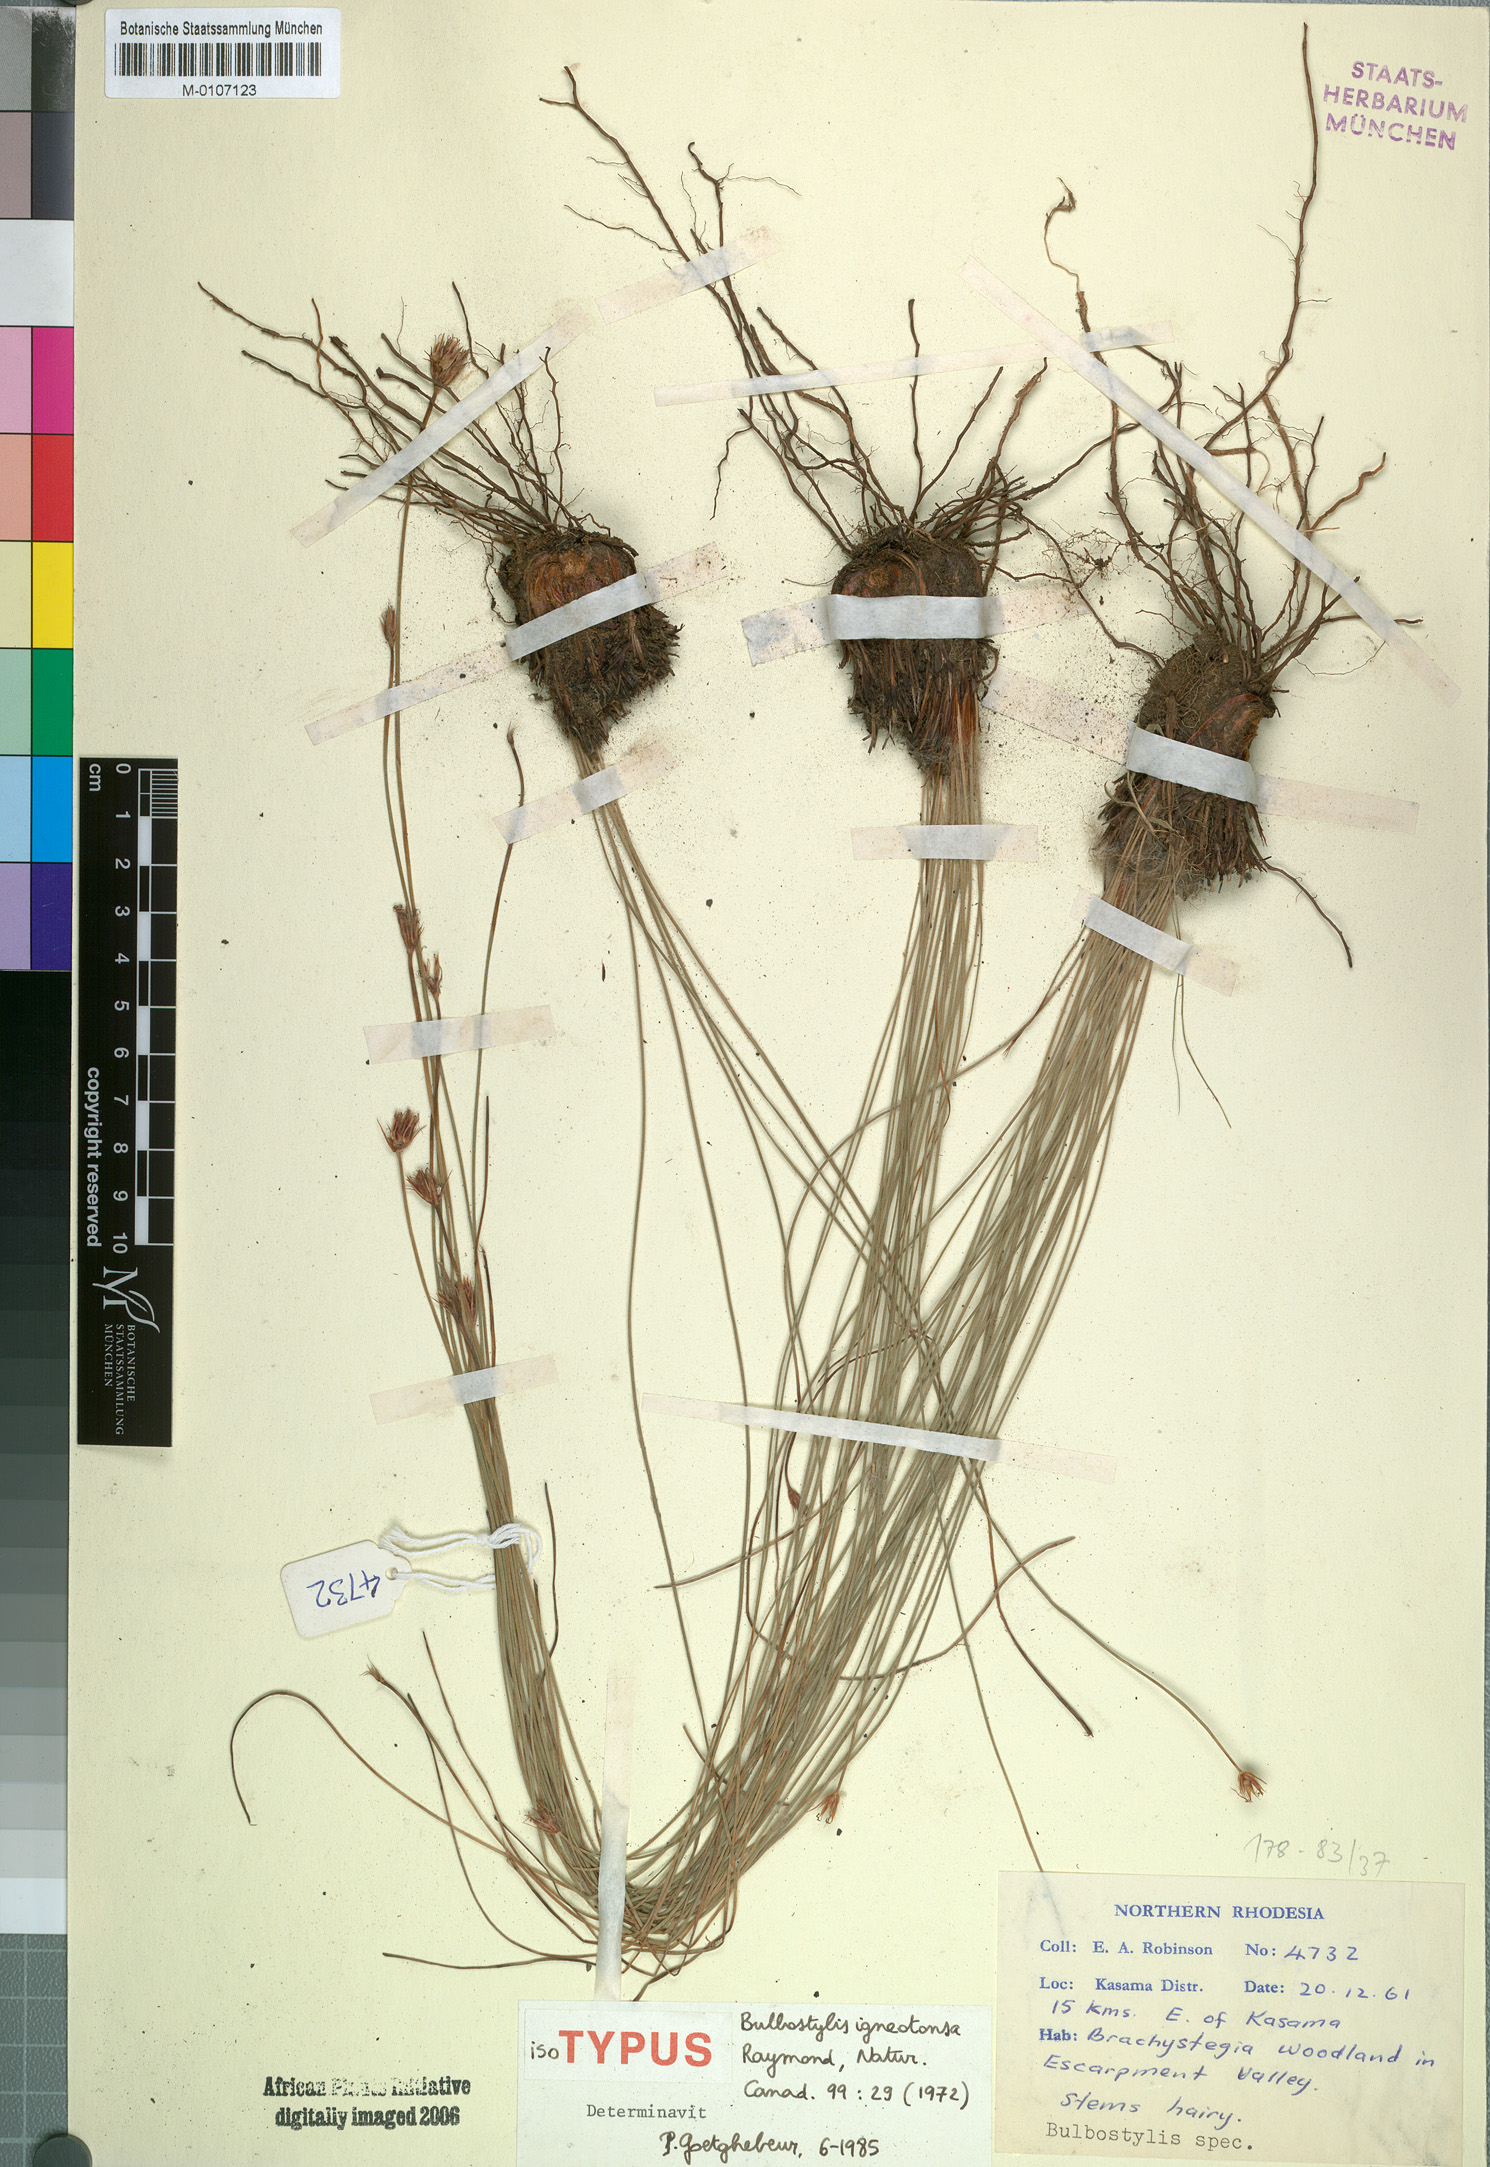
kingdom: Plantae
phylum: Tracheophyta
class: Liliopsida
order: Poales
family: Cyperaceae
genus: Bulbostylis
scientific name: Bulbostylis igneotonsa
